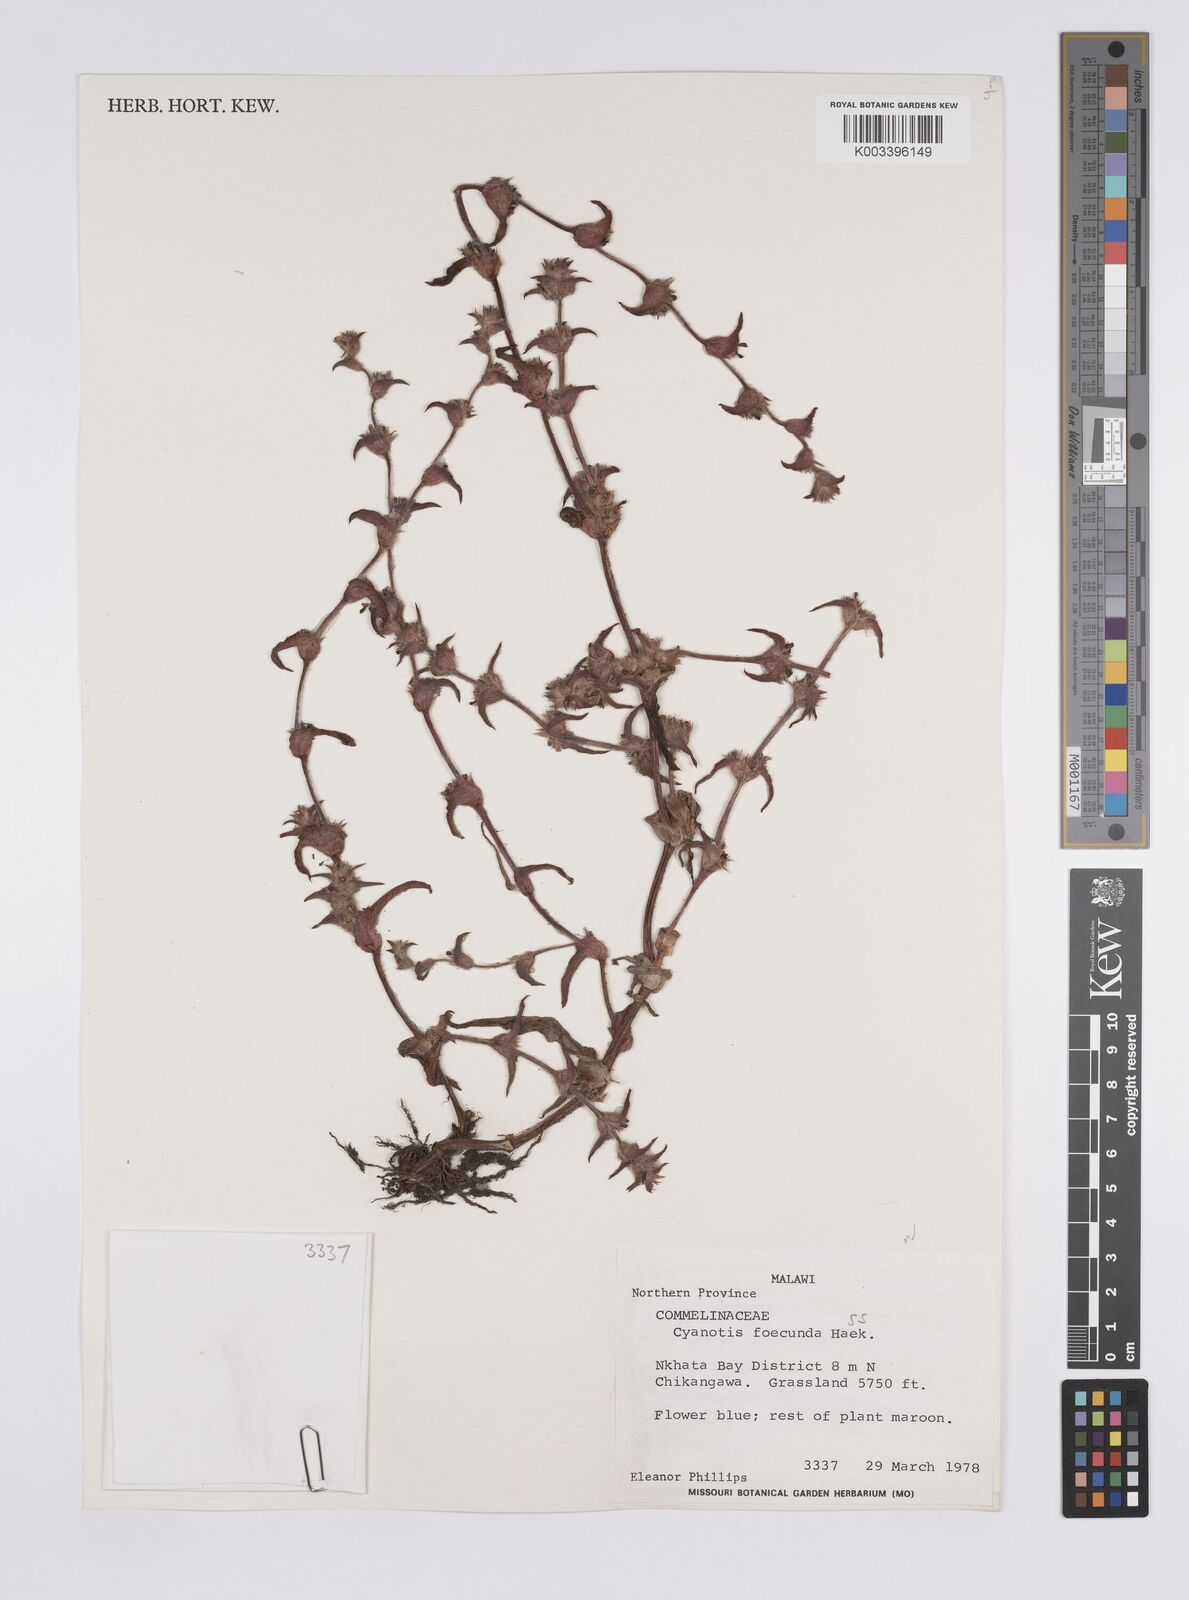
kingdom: Plantae
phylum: Tracheophyta
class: Liliopsida
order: Commelinales
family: Commelinaceae
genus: Cyanotis
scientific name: Cyanotis foecunda
